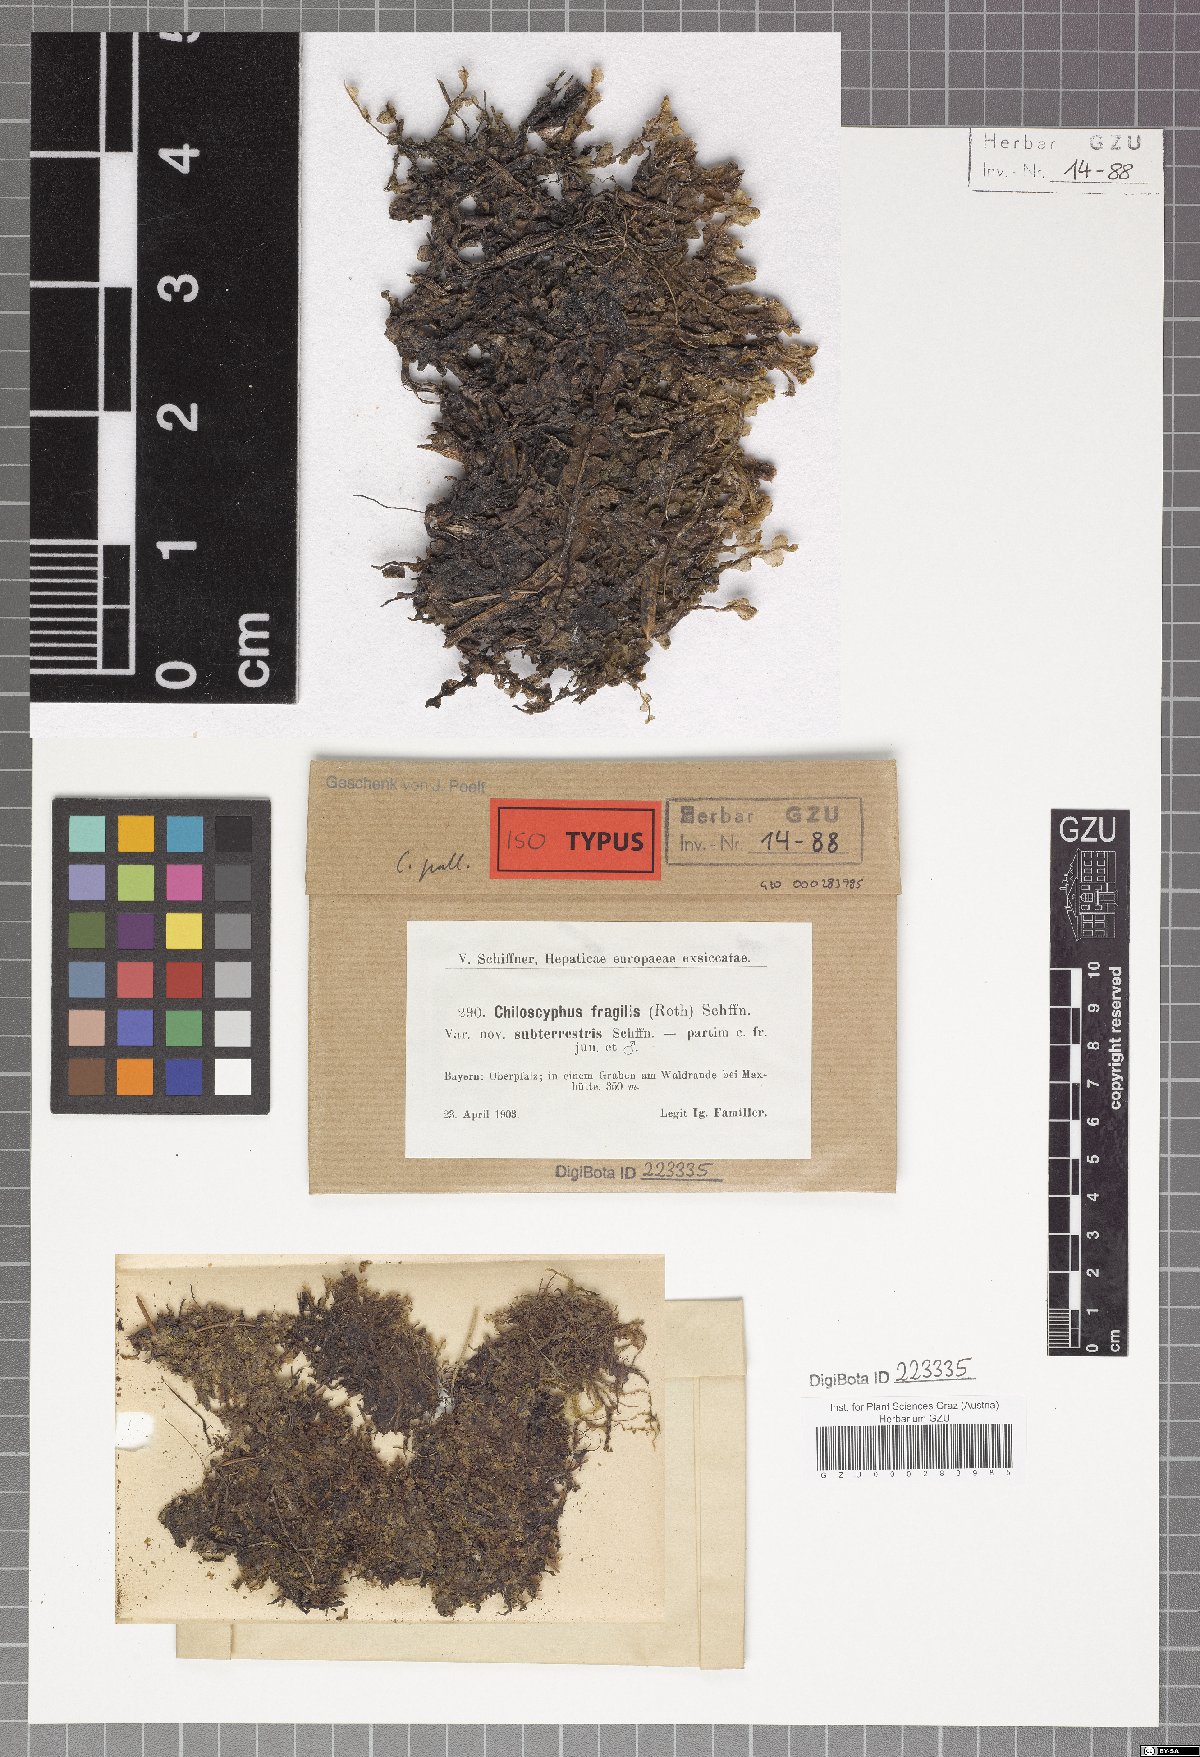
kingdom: Plantae
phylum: Marchantiophyta
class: Jungermanniopsida
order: Jungermanniales
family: Lophocoleaceae
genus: Chiloscyphus
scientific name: Chiloscyphus pallescens
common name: St winifrid's other moss
